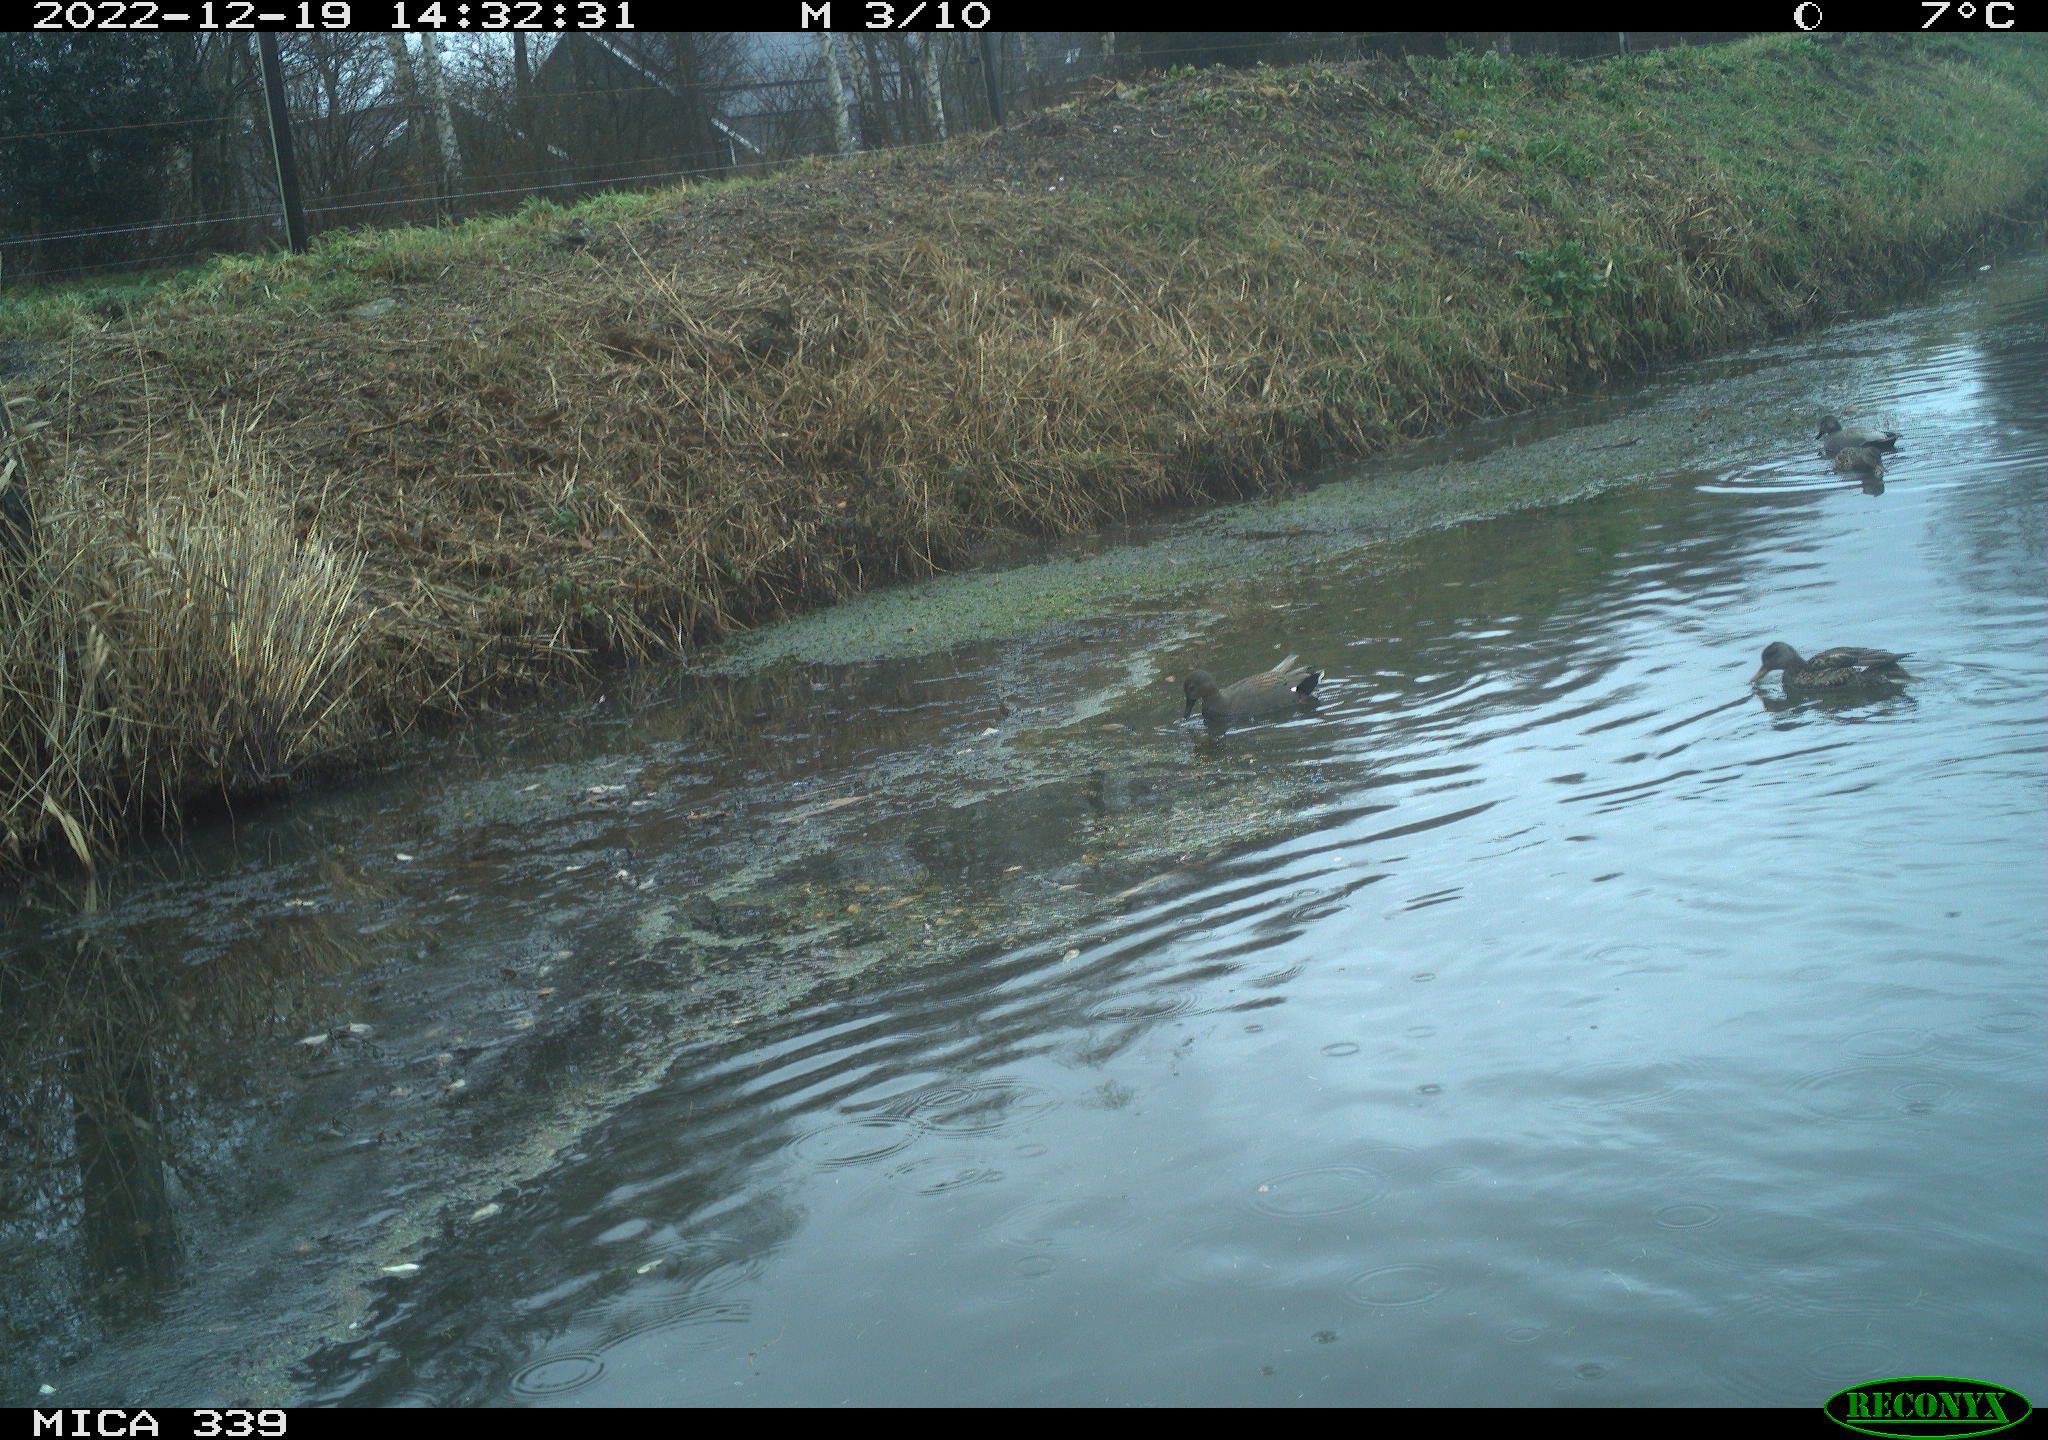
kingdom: Animalia
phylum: Chordata
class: Aves
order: Anseriformes
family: Anatidae
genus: Anas
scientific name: Anas
